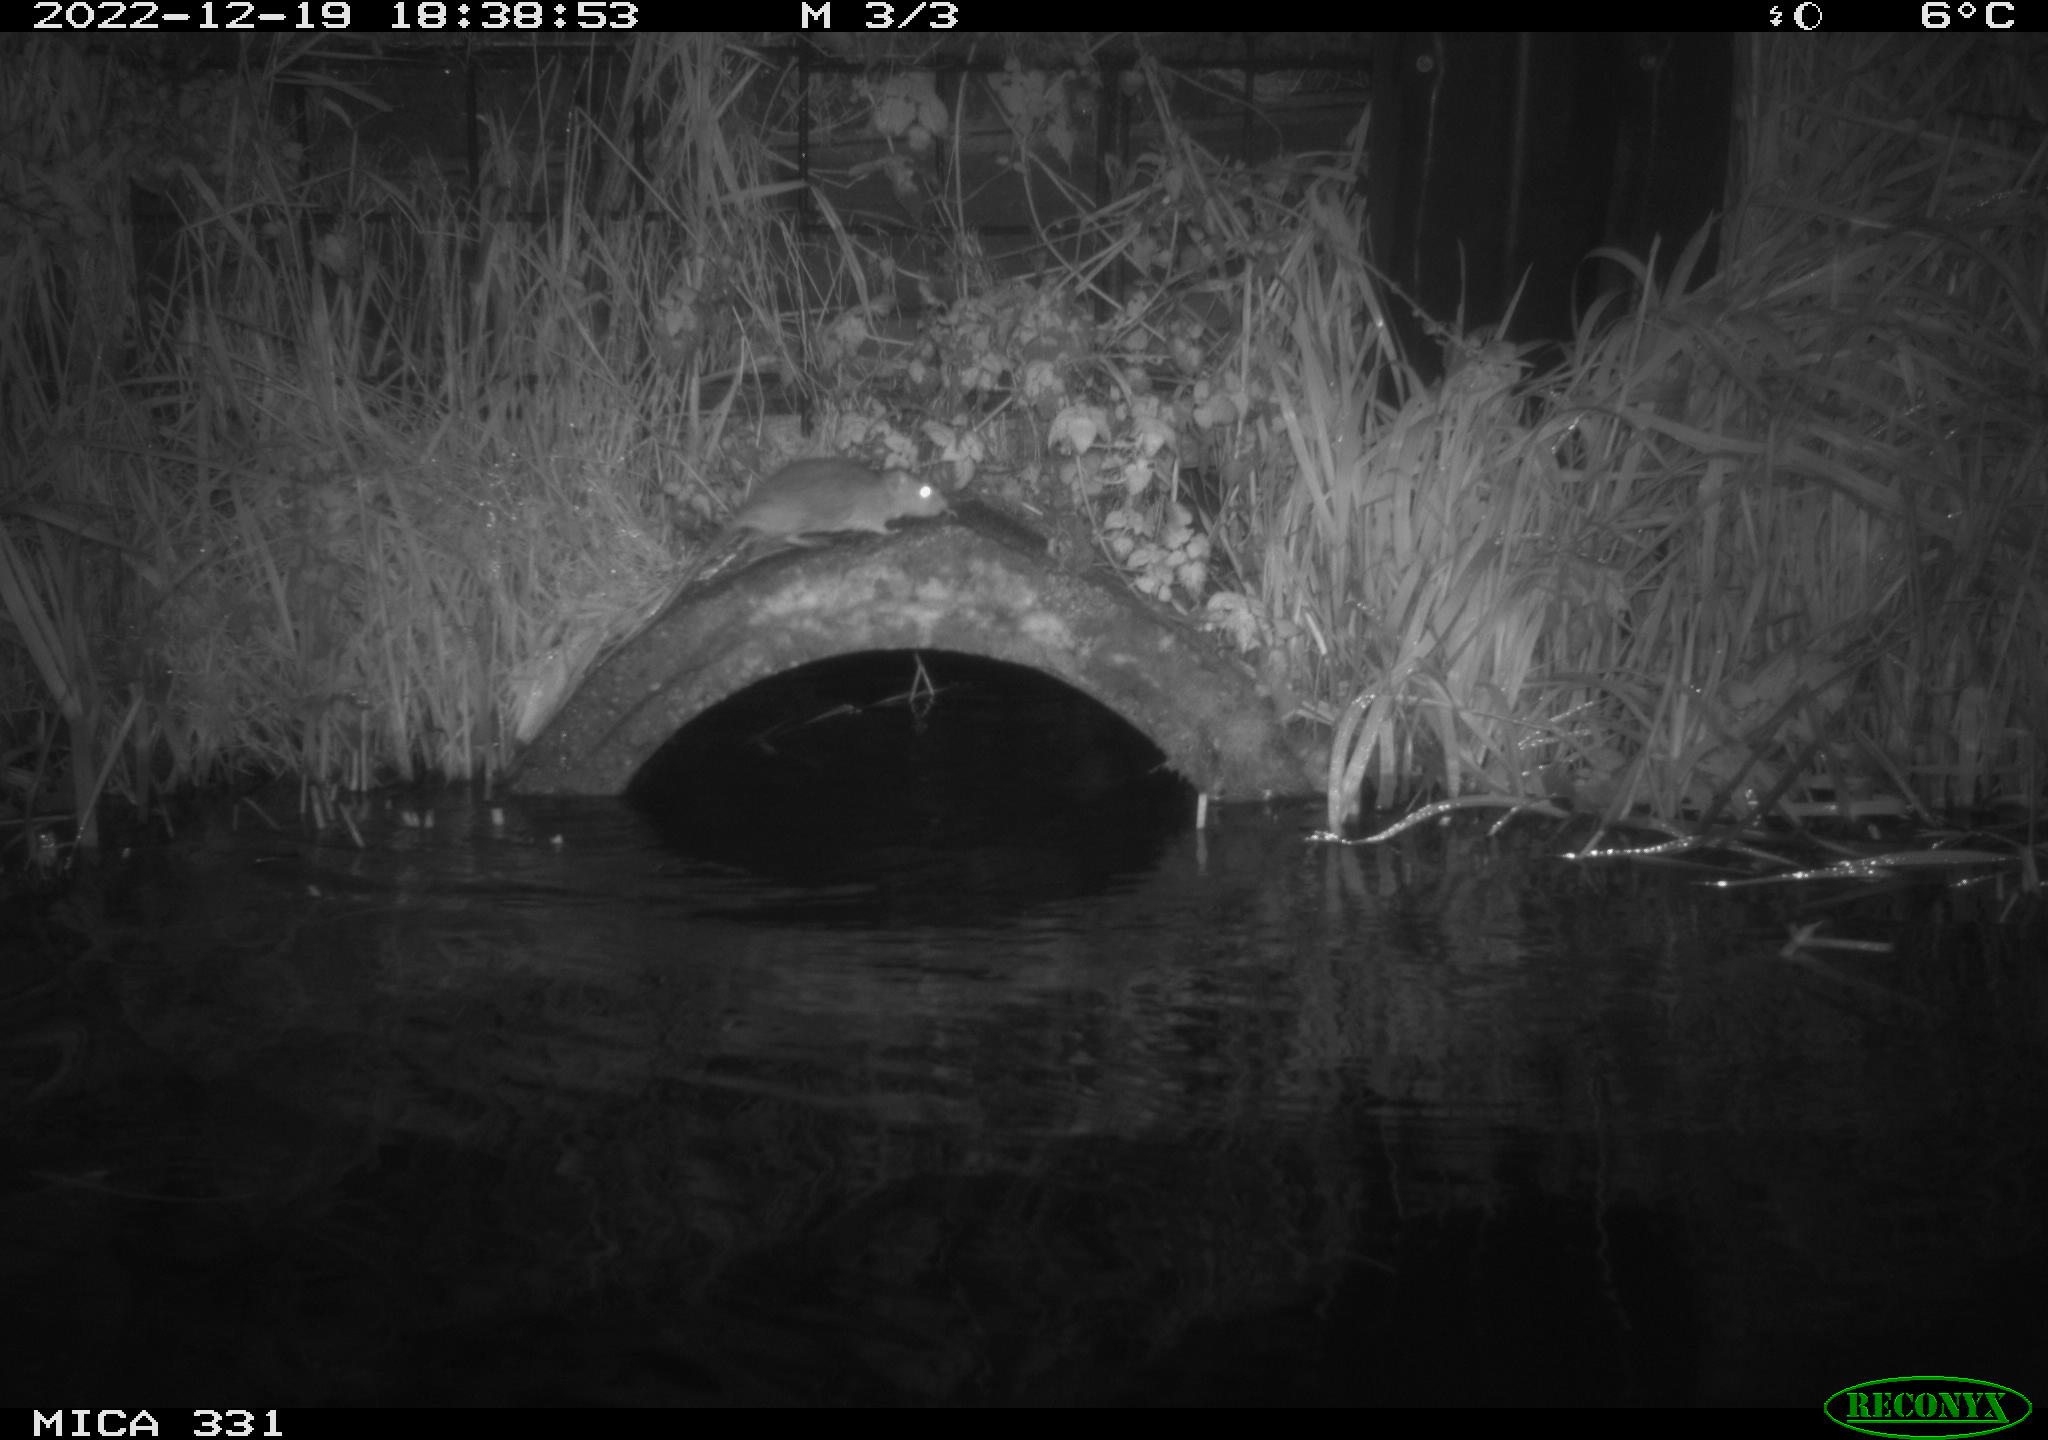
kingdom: Animalia
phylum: Chordata
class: Mammalia
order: Rodentia
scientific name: Rodentia
